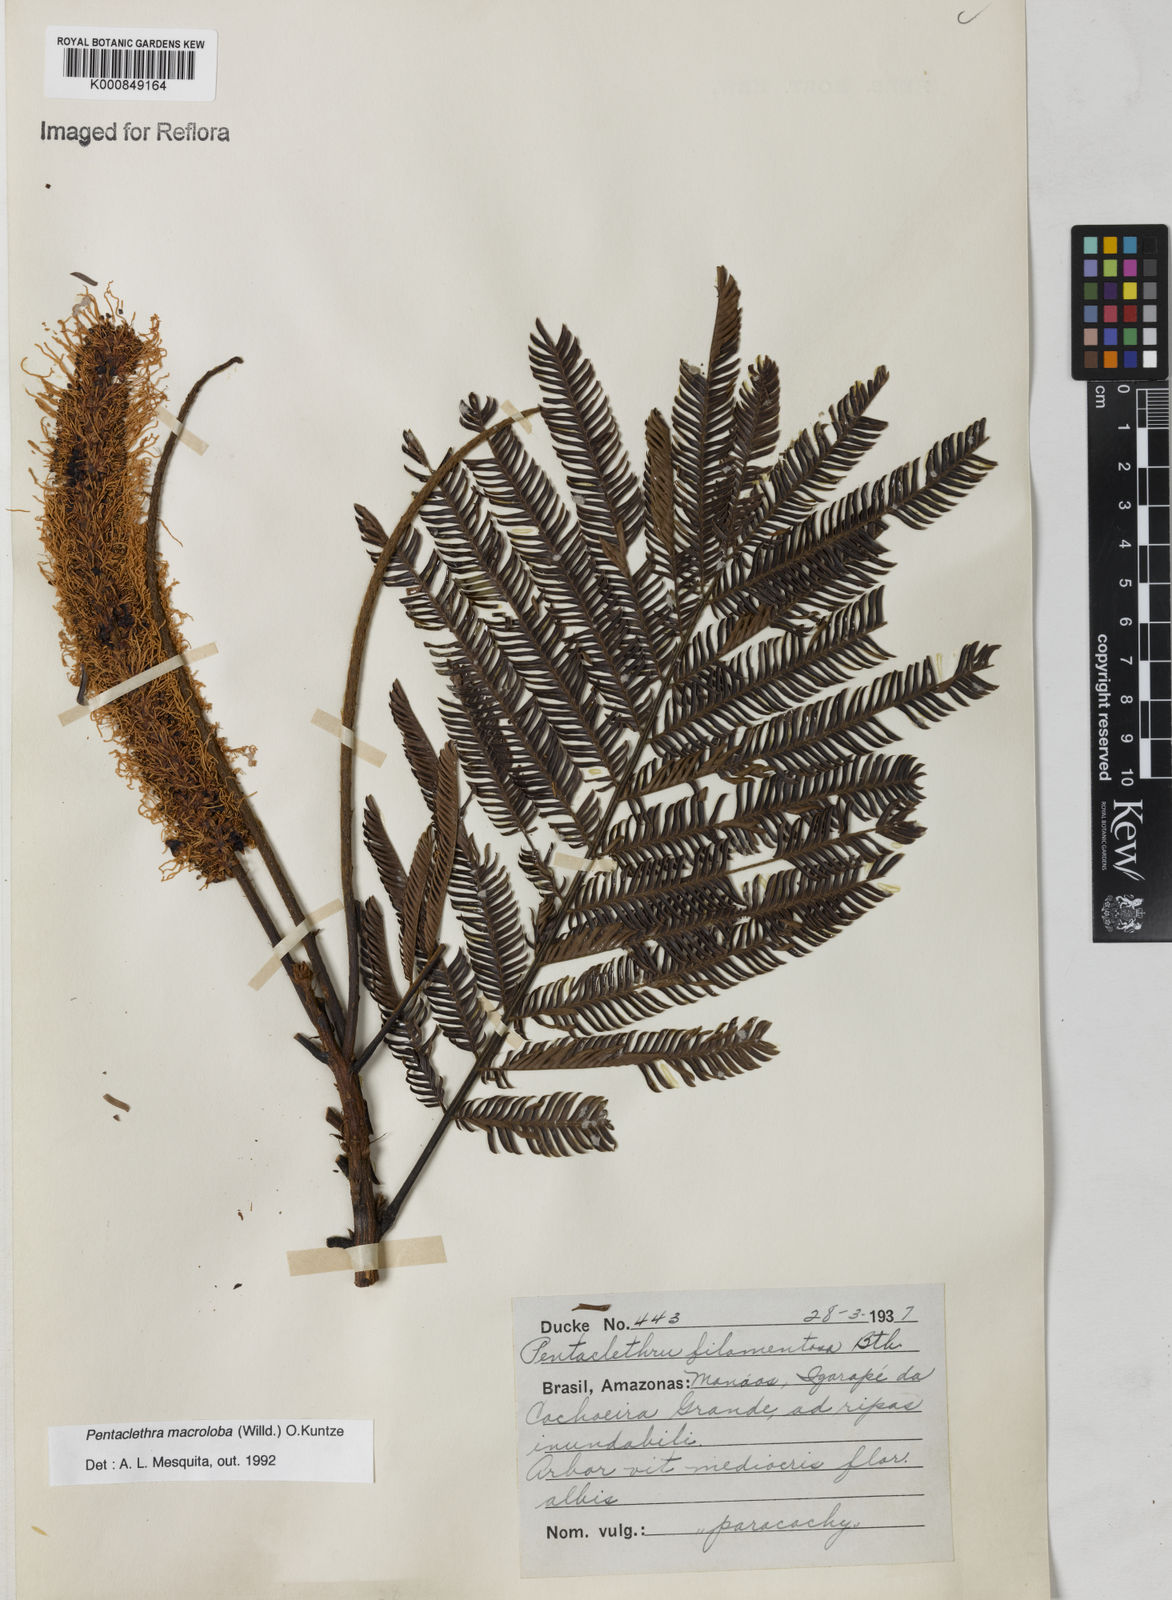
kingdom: Plantae
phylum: Tracheophyta
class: Magnoliopsida
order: Fabales
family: Fabaceae
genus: Pentaclethra
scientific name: Pentaclethra macroloba
